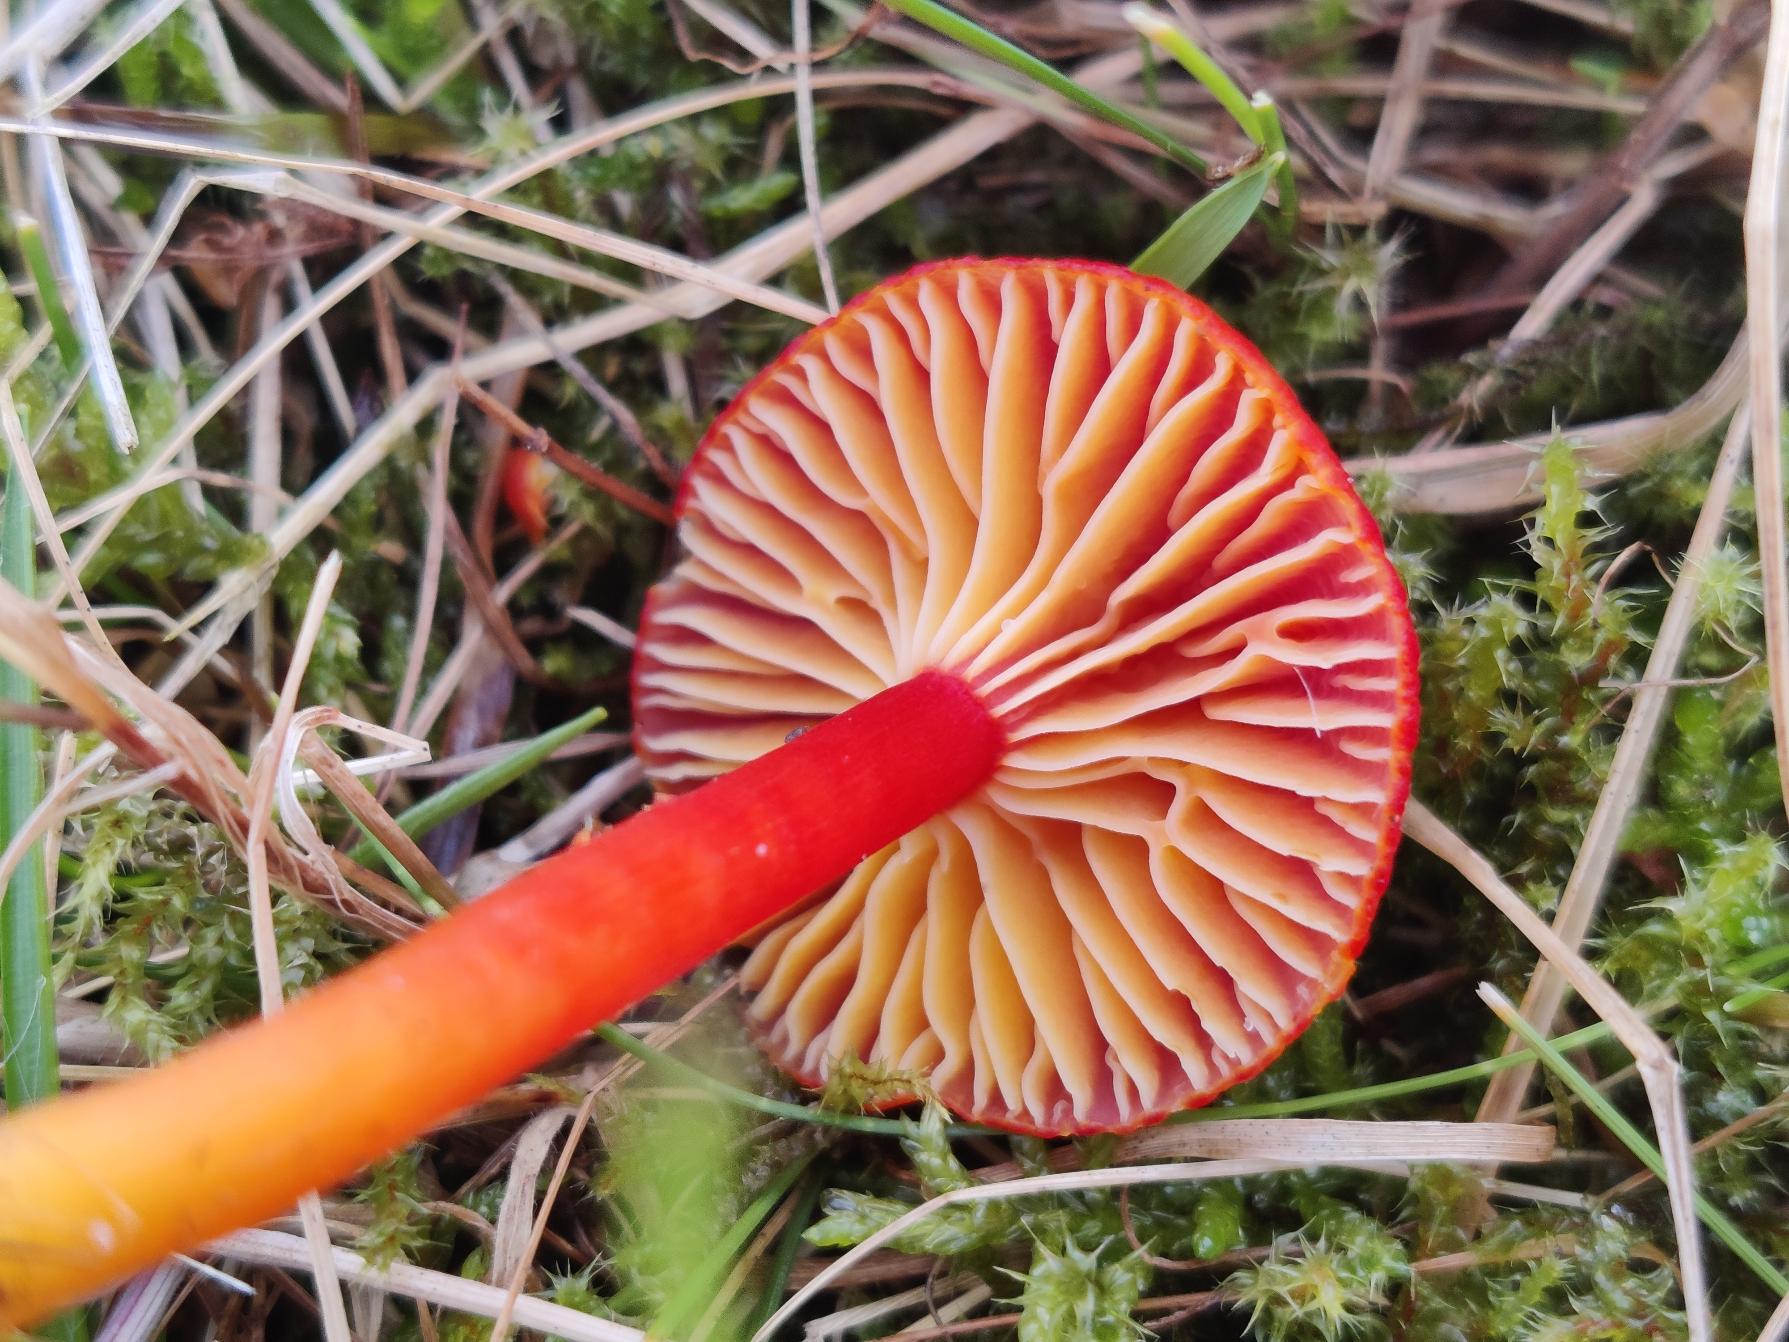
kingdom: Fungi
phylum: Basidiomycota
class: Agaricomycetes
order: Agaricales
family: Hygrophoraceae
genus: Hygrocybe
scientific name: Hygrocybe coccinea
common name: Cinnober-vokshat
